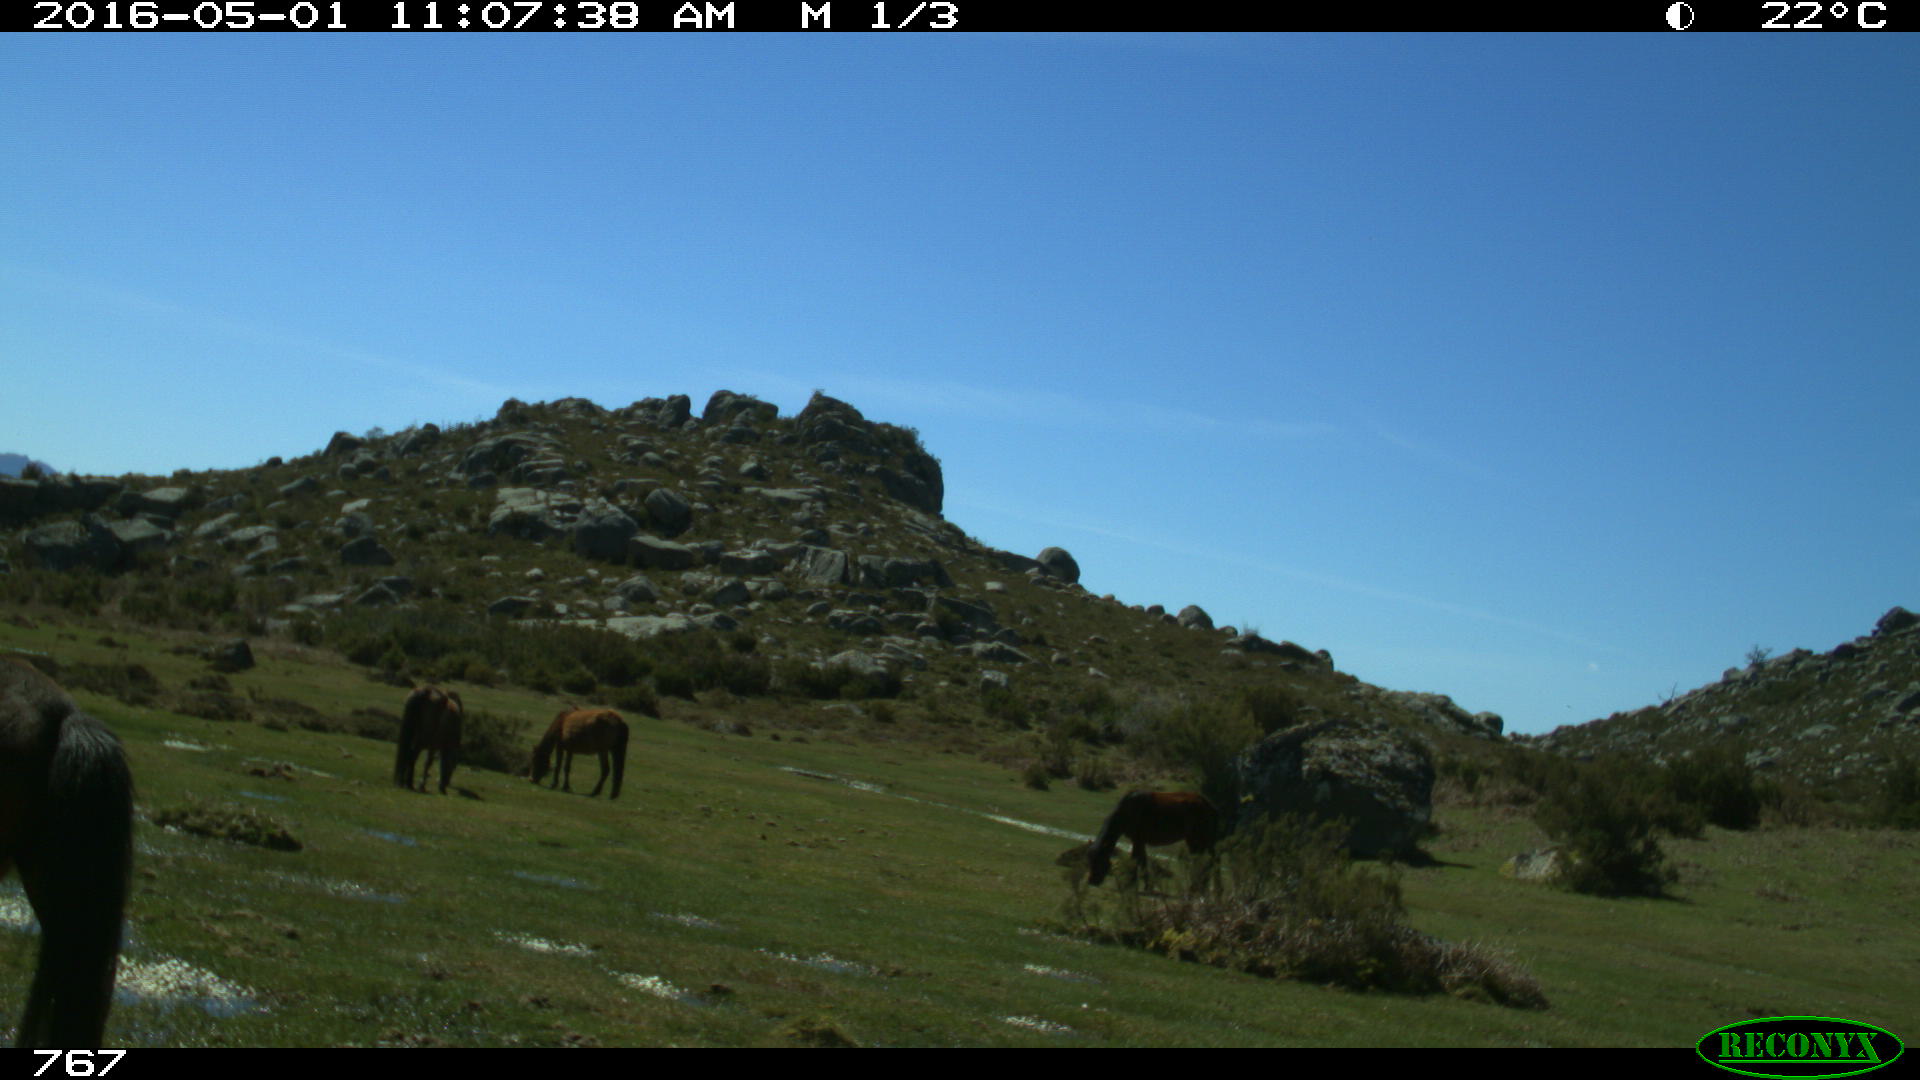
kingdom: Animalia
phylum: Chordata
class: Mammalia
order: Perissodactyla
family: Equidae
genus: Equus
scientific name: Equus caballus
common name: Horse
